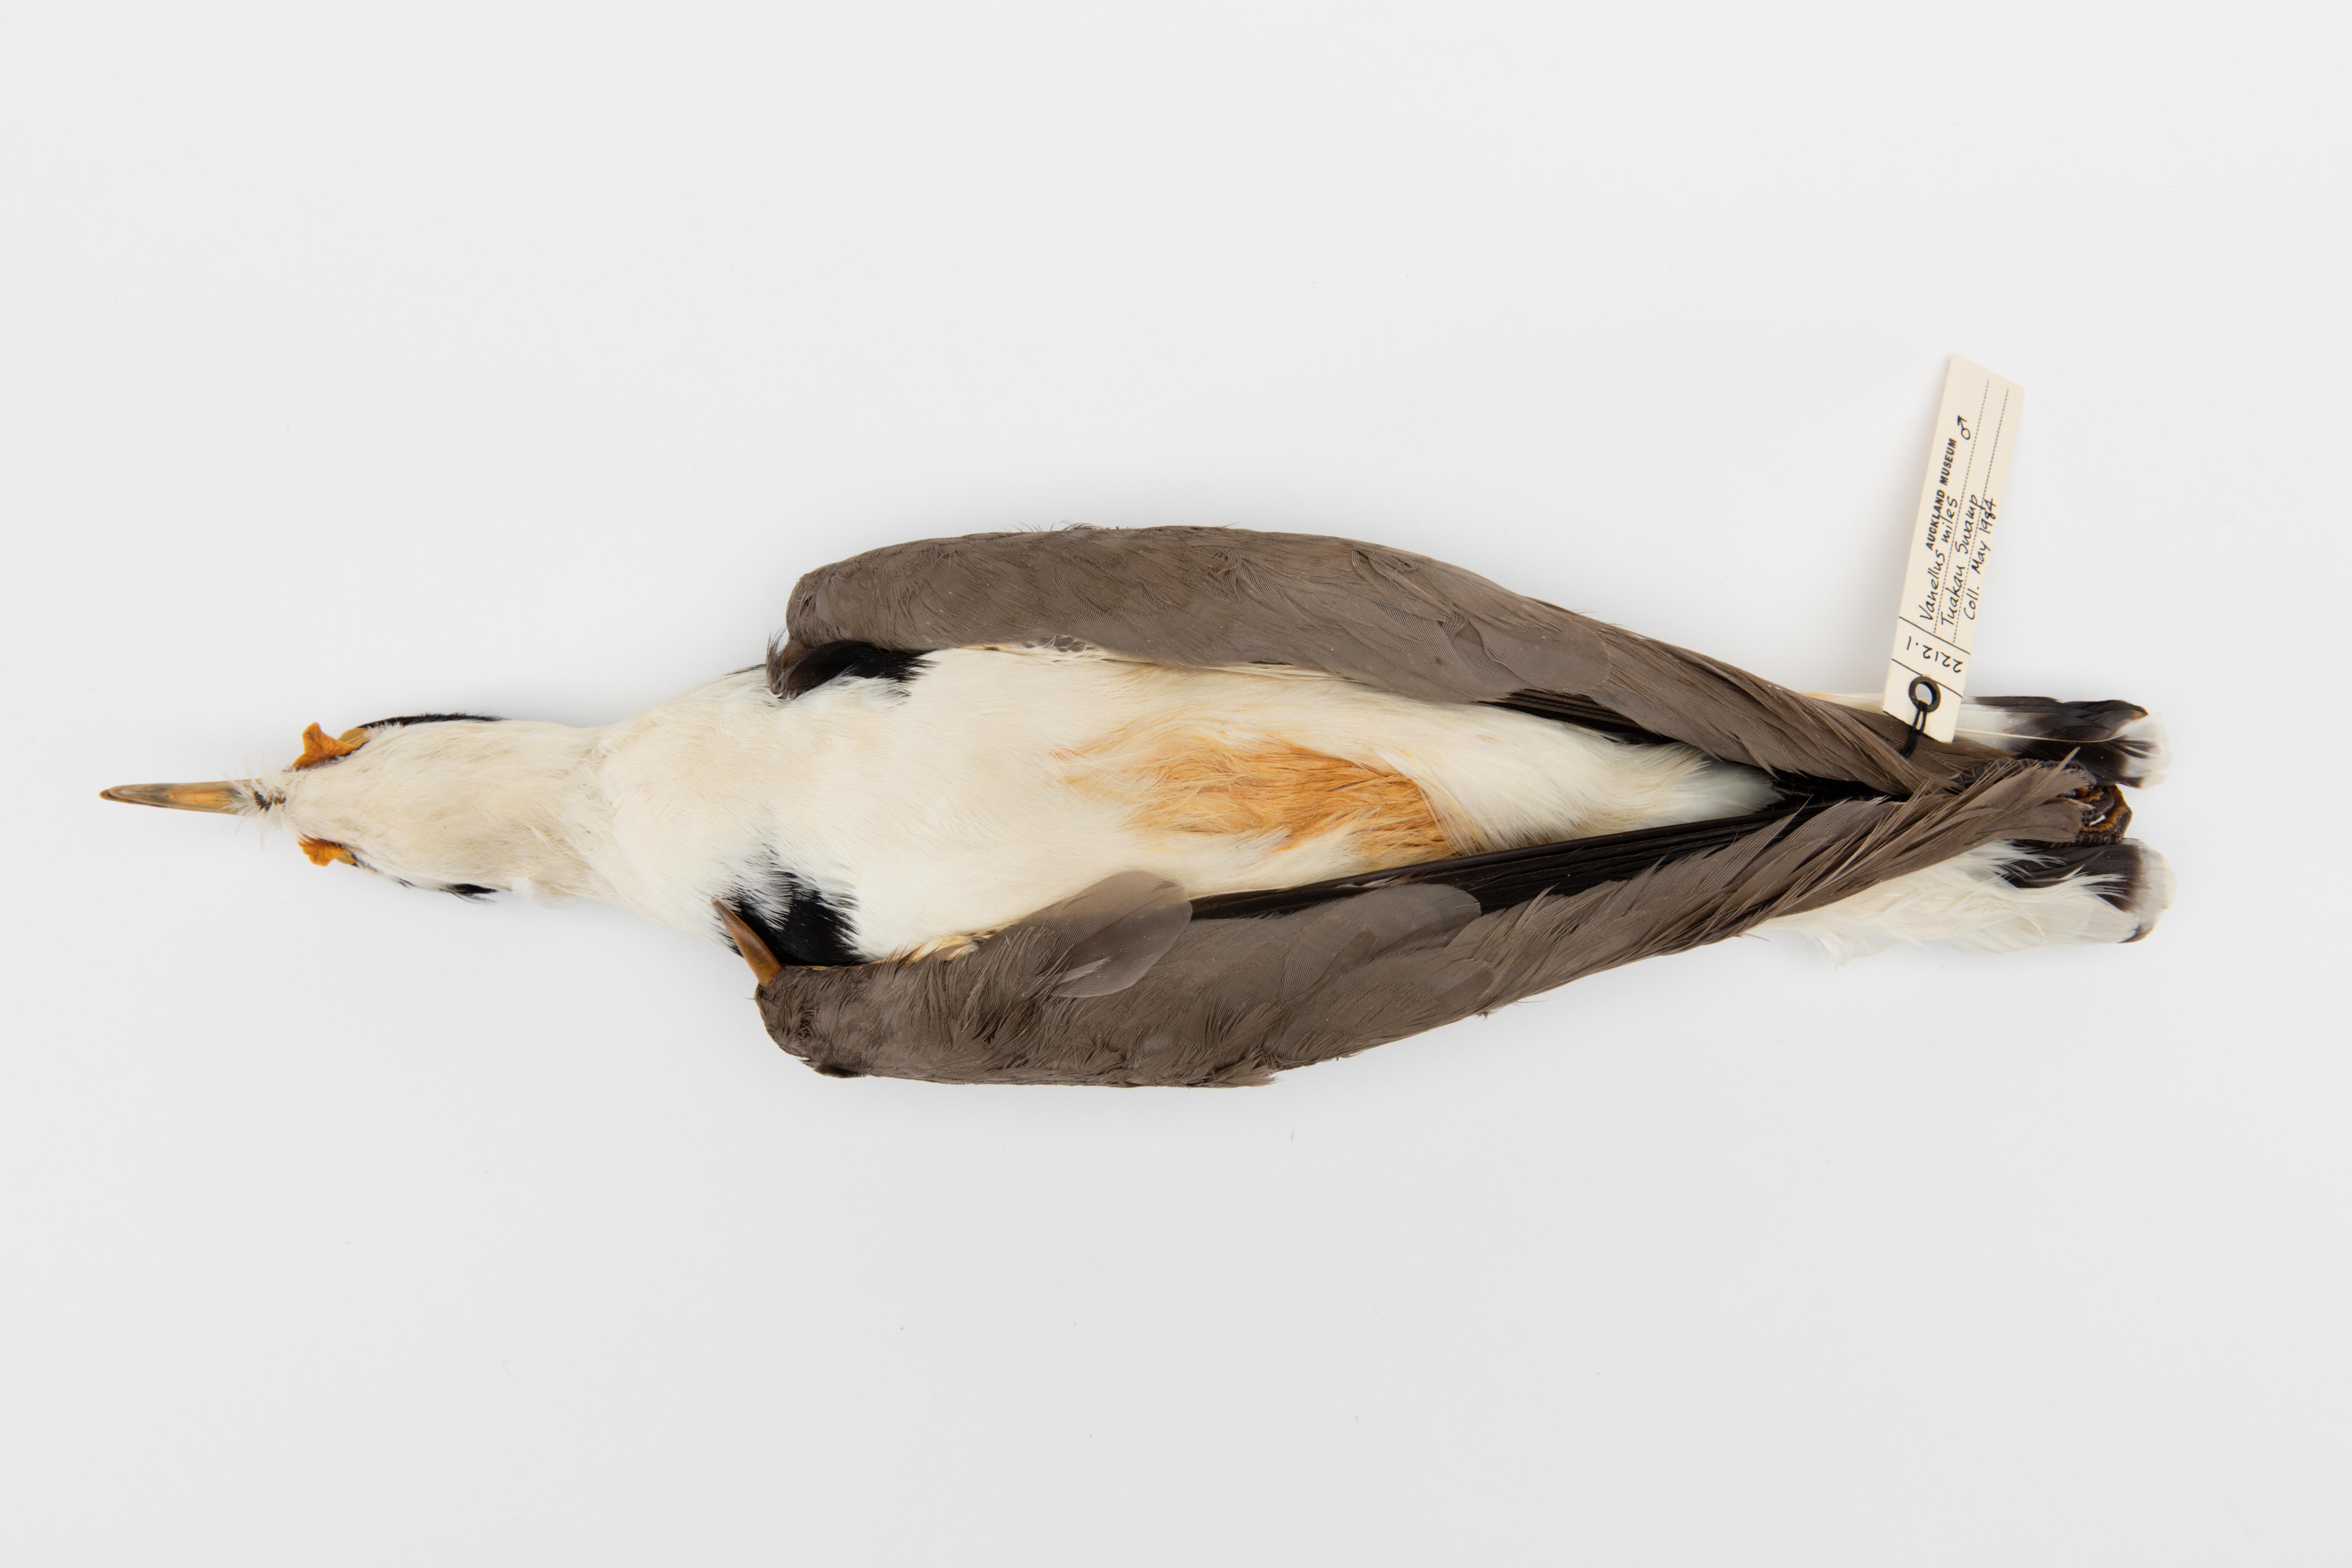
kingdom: Animalia
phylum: Chordata
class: Aves
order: Charadriiformes
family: Charadriidae
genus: Vanellus
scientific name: Vanellus miles
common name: Masked lapwing
